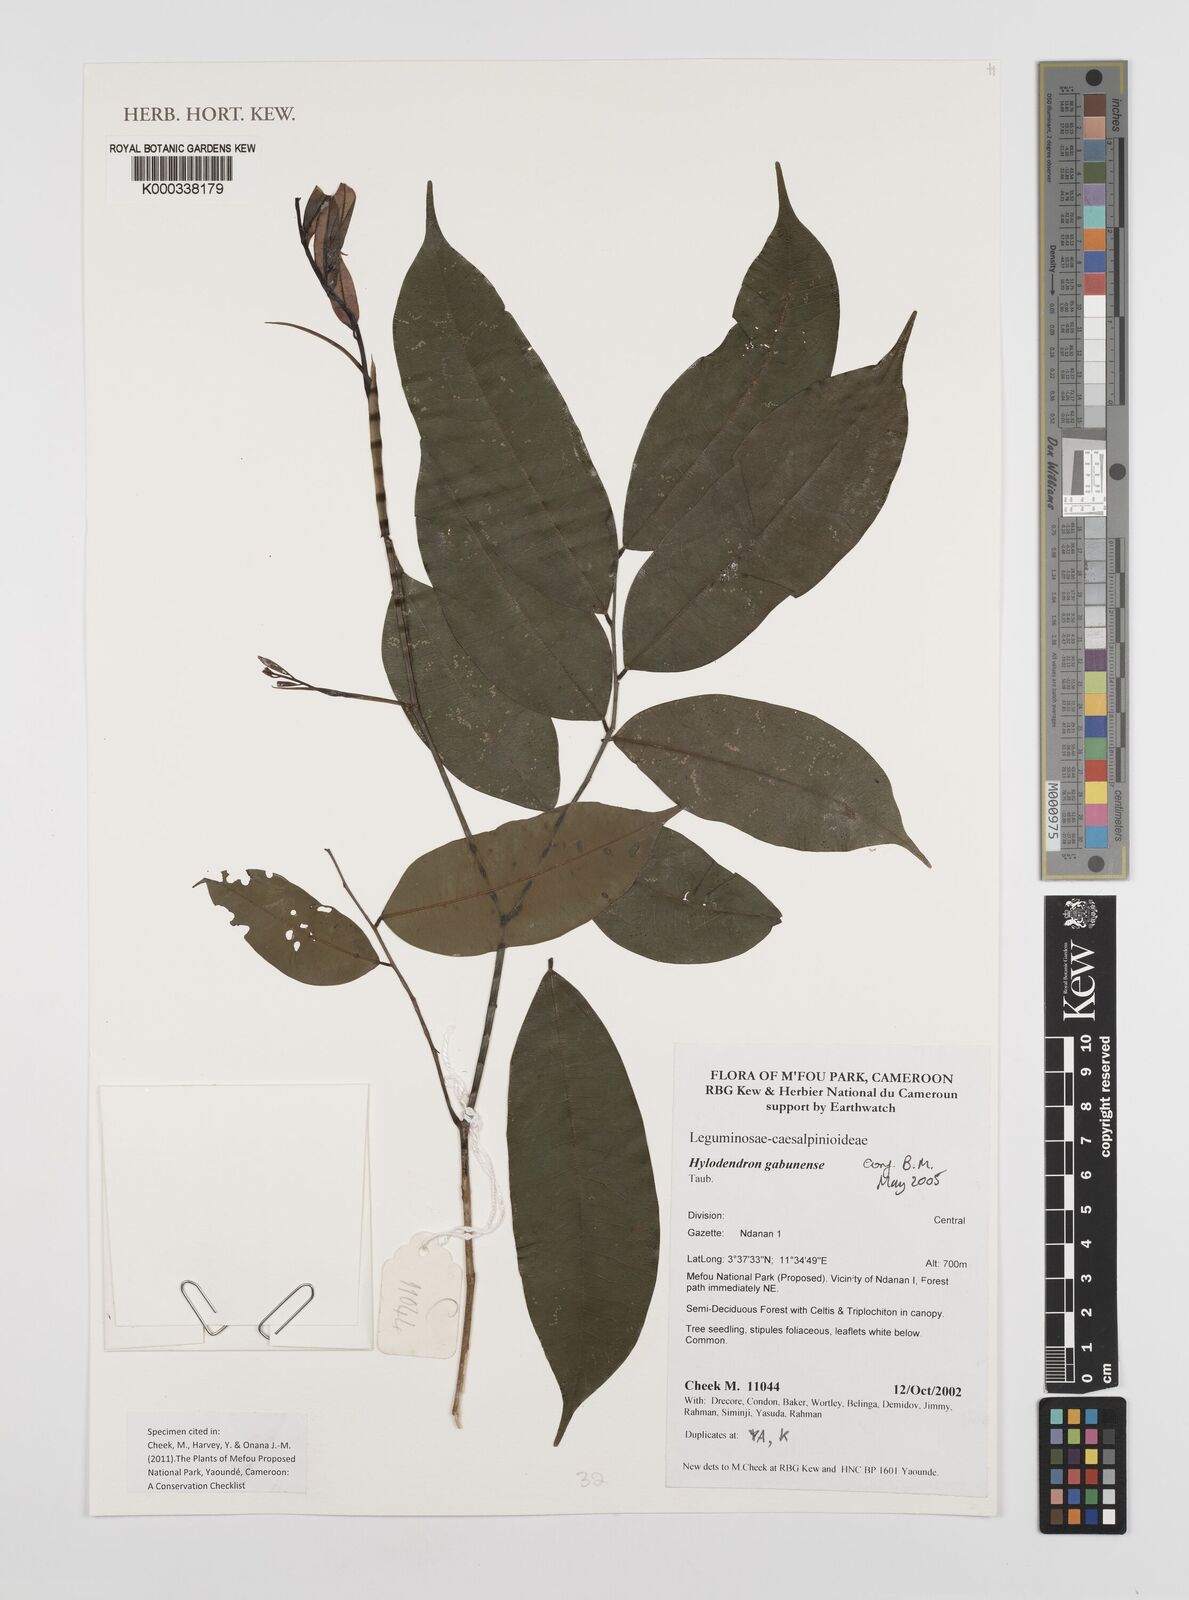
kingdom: Plantae
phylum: Tracheophyta
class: Magnoliopsida
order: Fabales
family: Fabaceae
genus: Hylodendron
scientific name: Hylodendron gabunense
